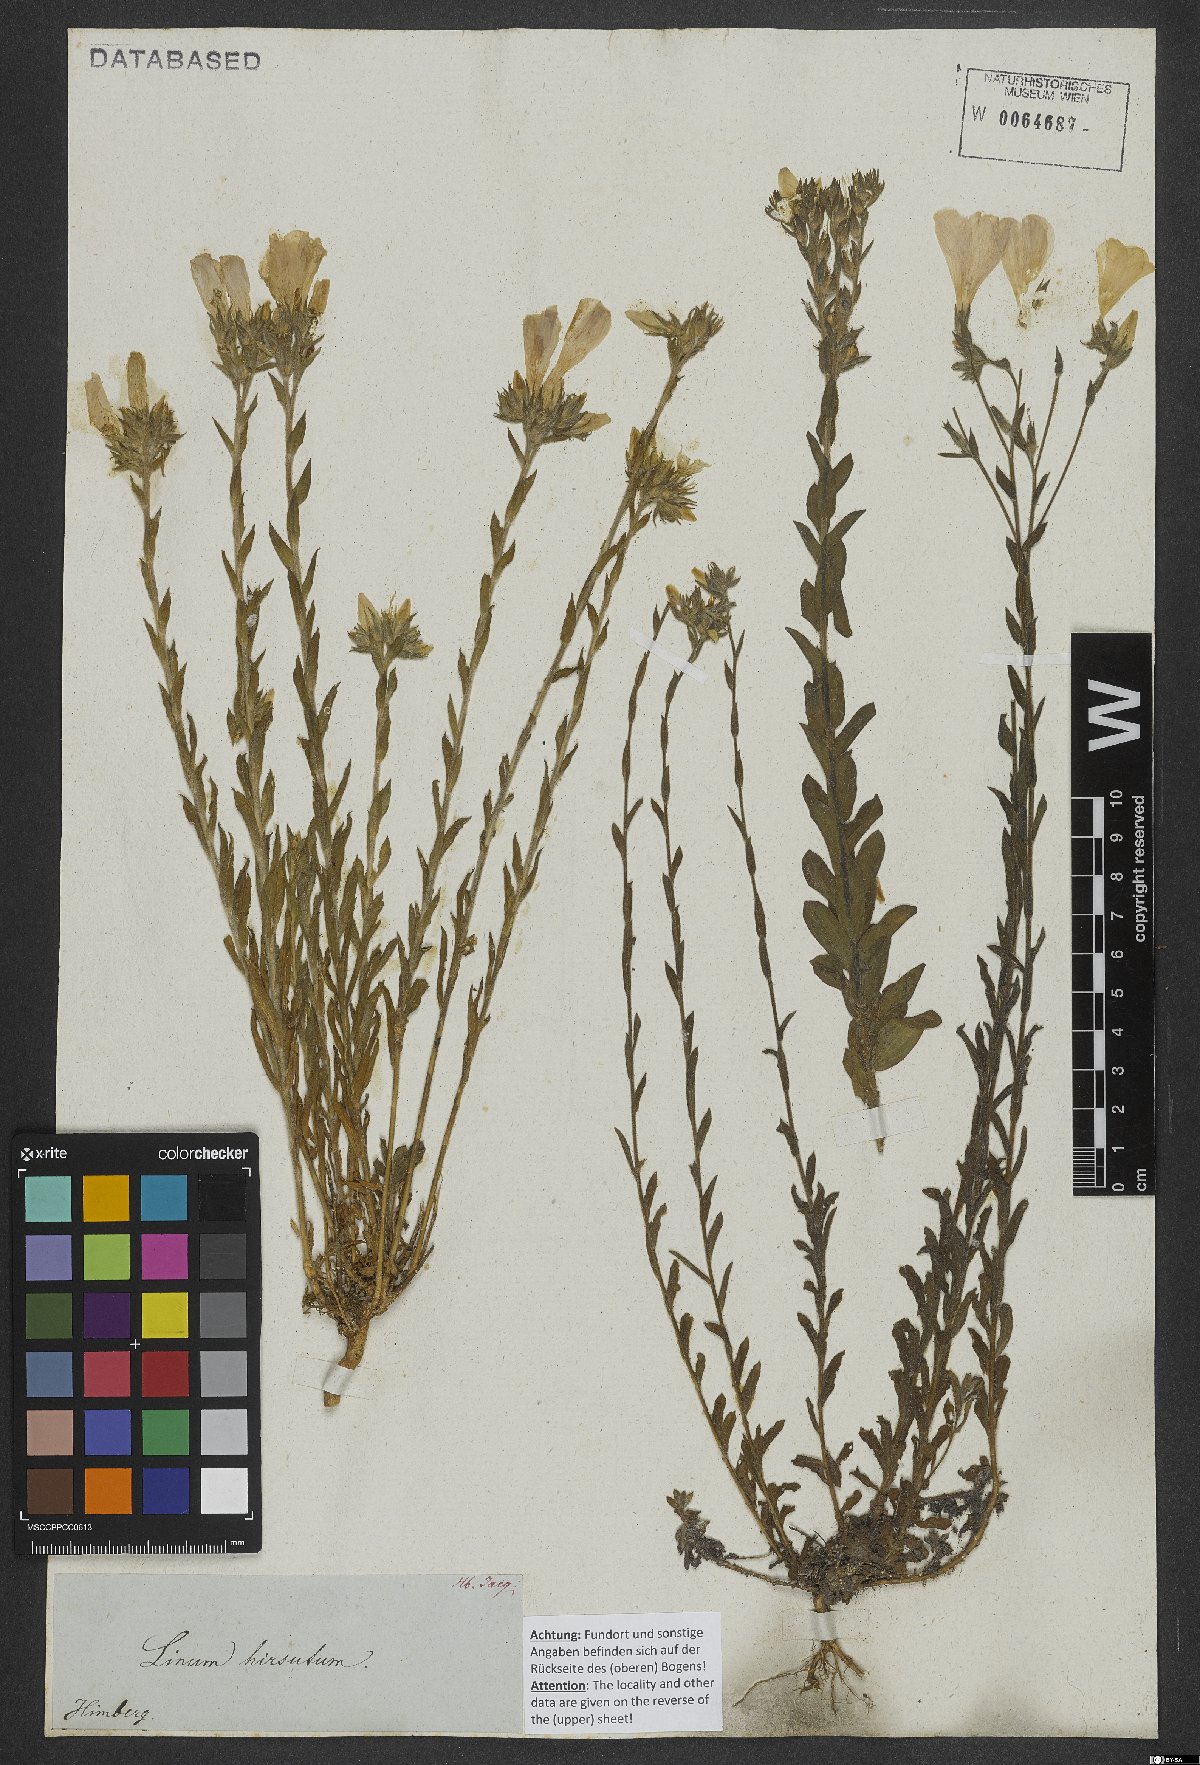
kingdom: Plantae
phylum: Tracheophyta
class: Magnoliopsida
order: Malpighiales
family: Linaceae
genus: Linum
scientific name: Linum hirsutum
